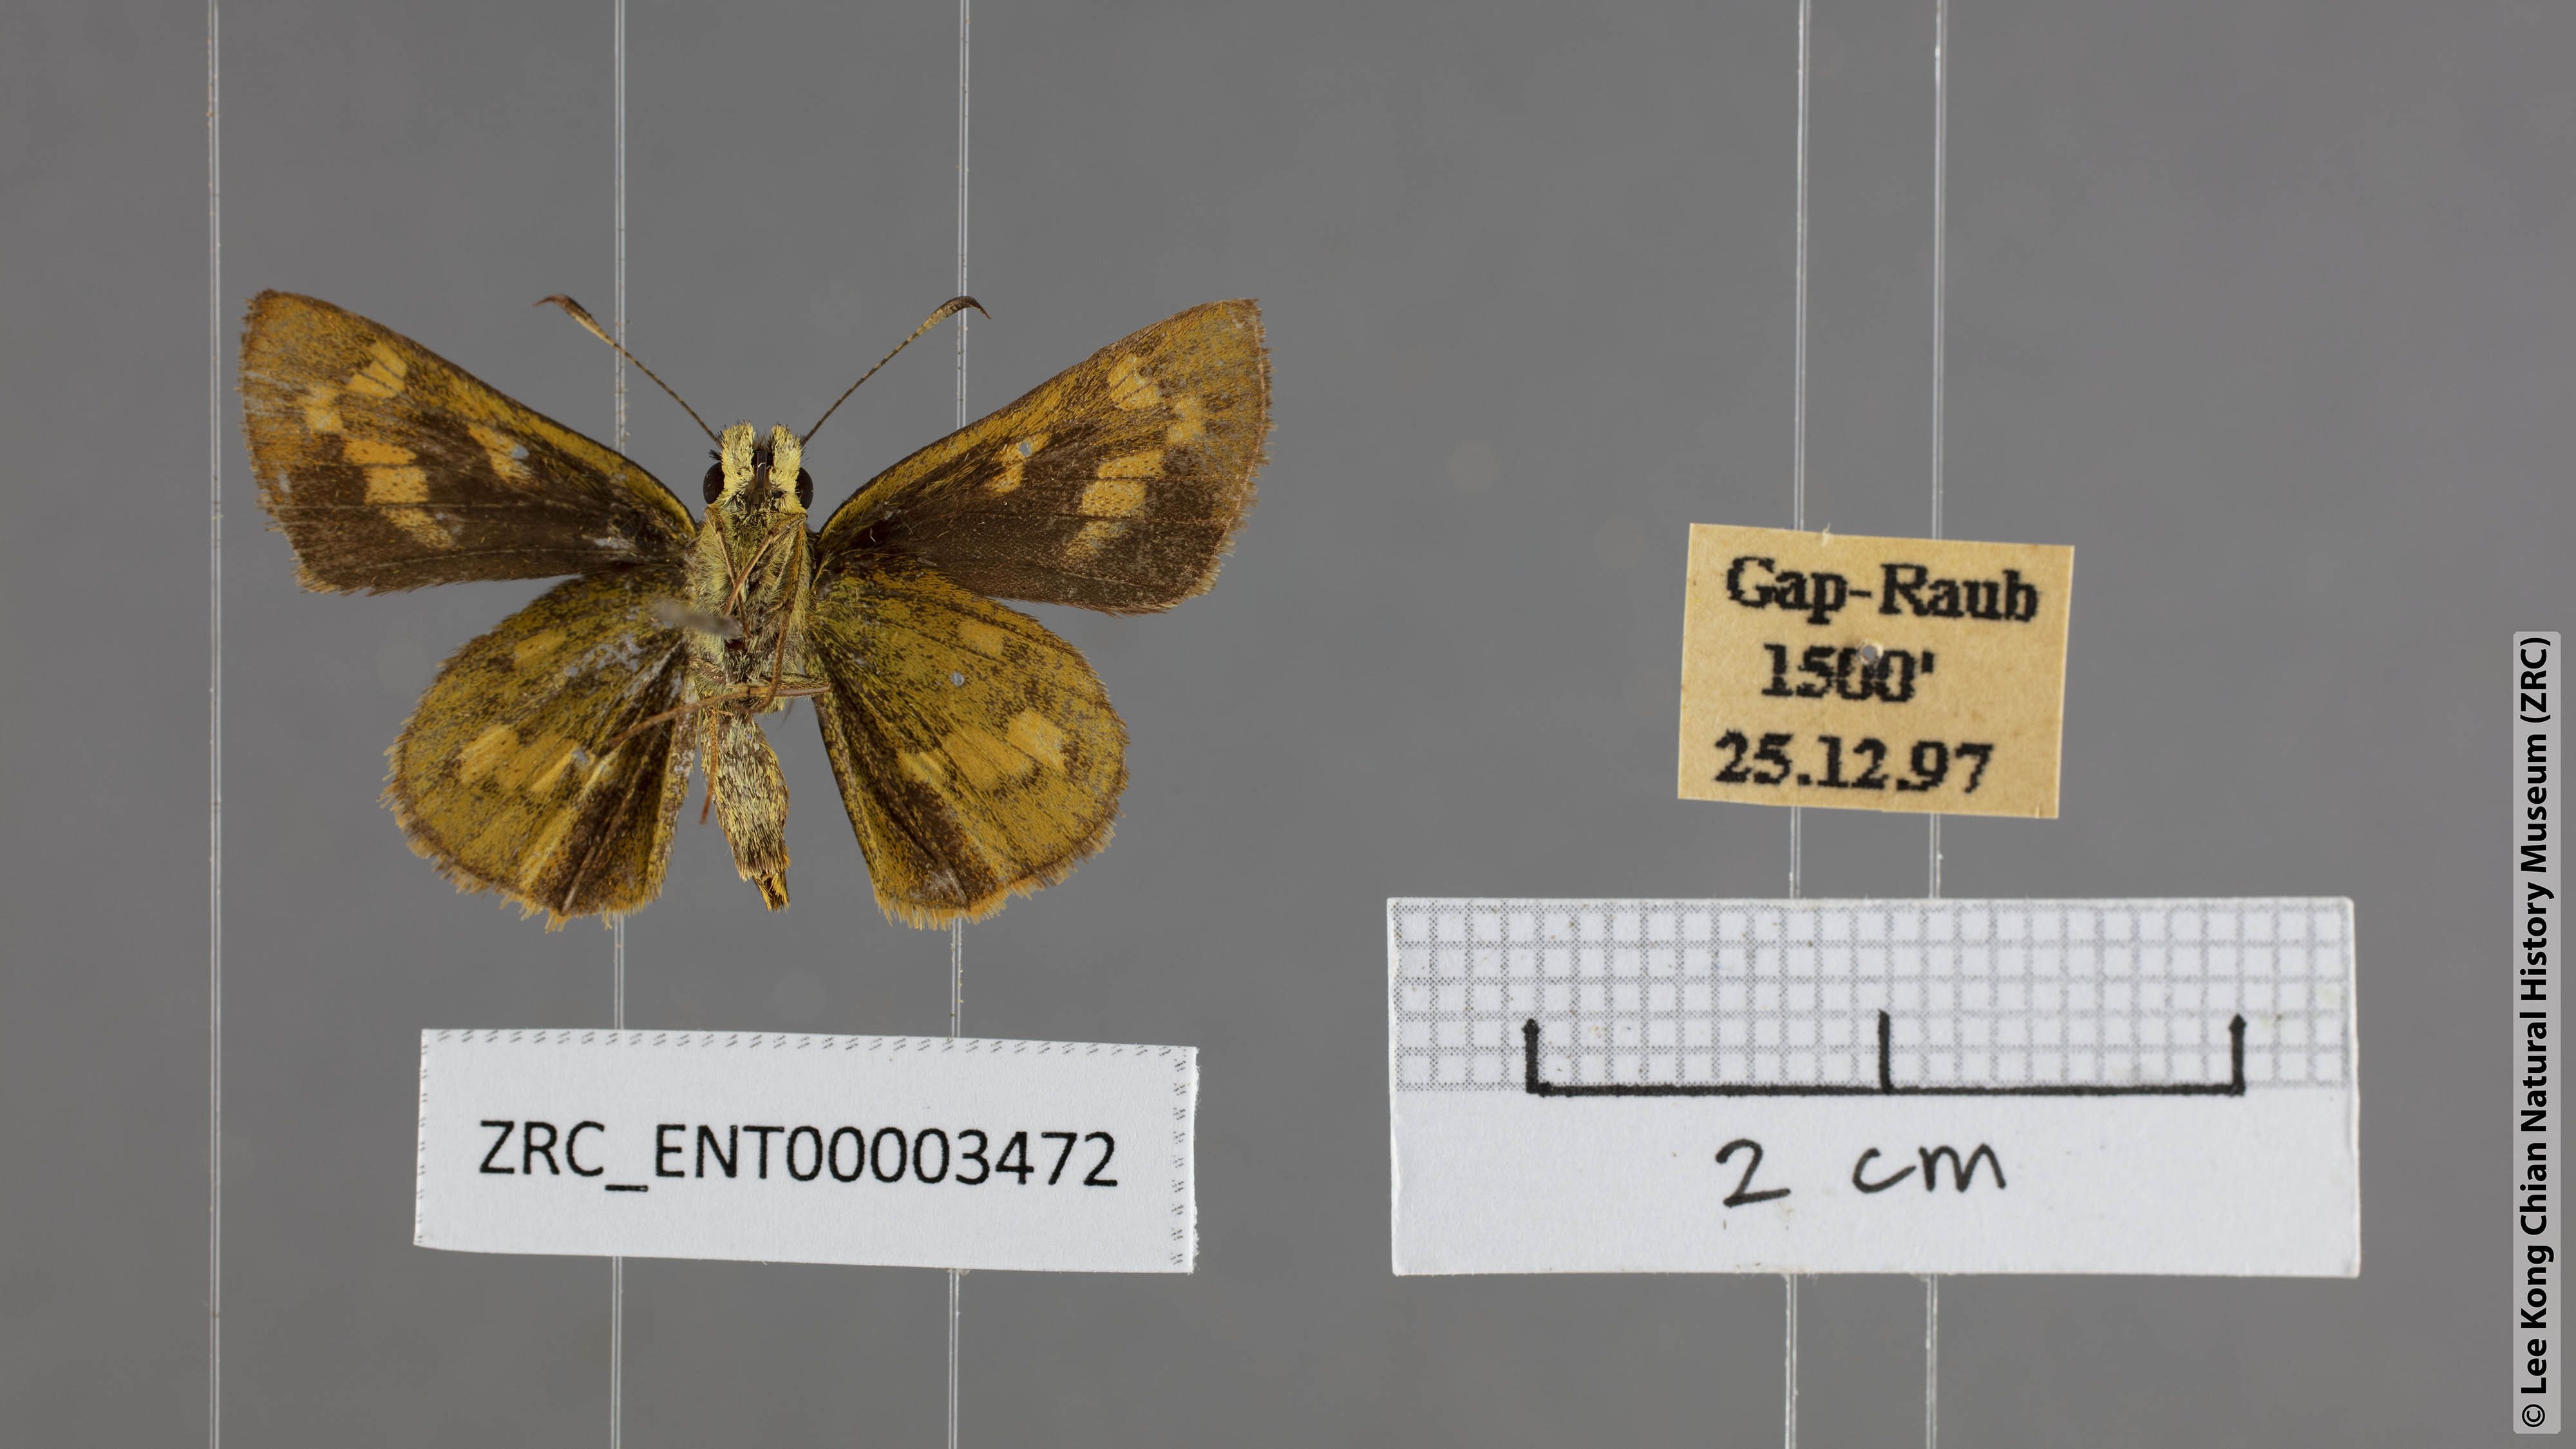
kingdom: Animalia
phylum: Arthropoda
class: Insecta
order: Lepidoptera
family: Hesperiidae
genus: Potanthus
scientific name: Potanthus lydia
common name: Lydia dart
